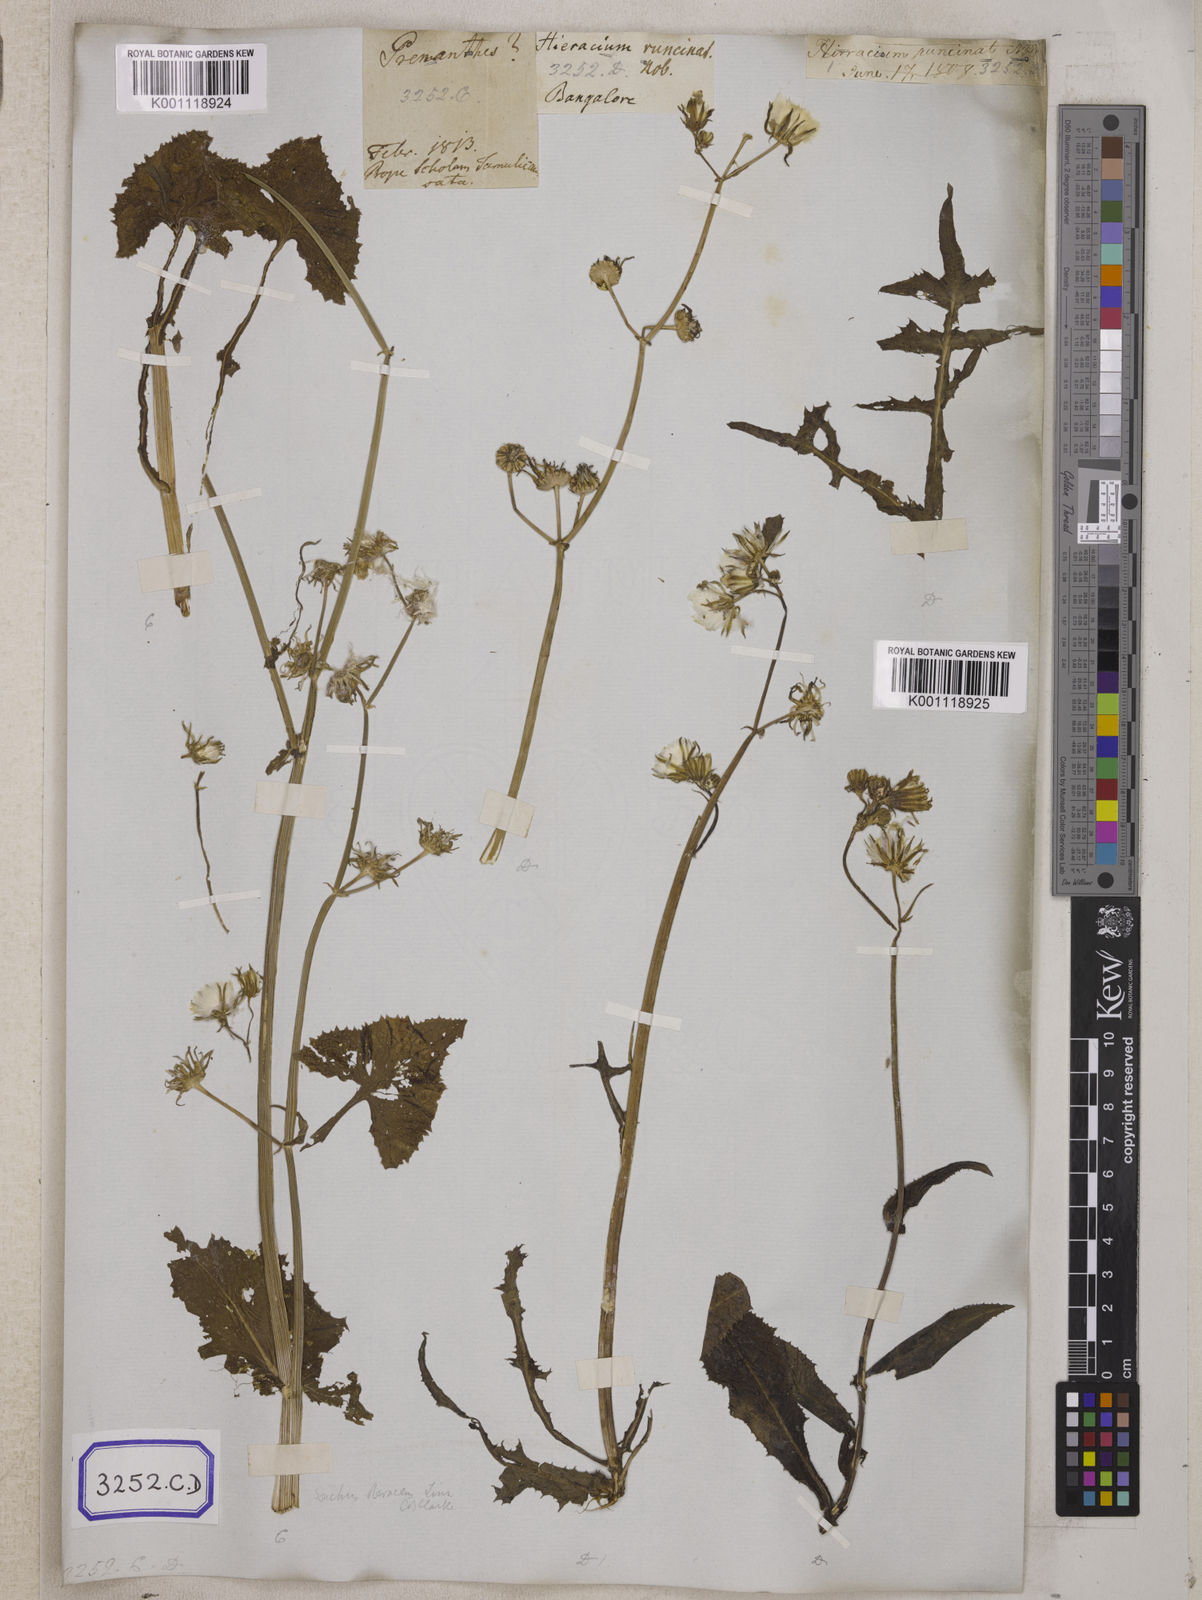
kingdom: Plantae
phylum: Tracheophyta
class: Magnoliopsida
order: Asterales
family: Asteraceae
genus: Sonchus
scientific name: Sonchus
